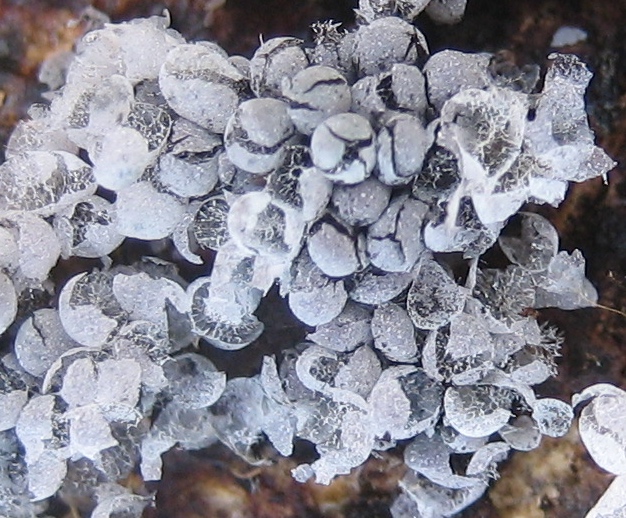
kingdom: Protozoa
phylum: Mycetozoa
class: Myxomycetes
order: Physarales
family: Physaraceae
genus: Badhamia
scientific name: Badhamia utricularis
